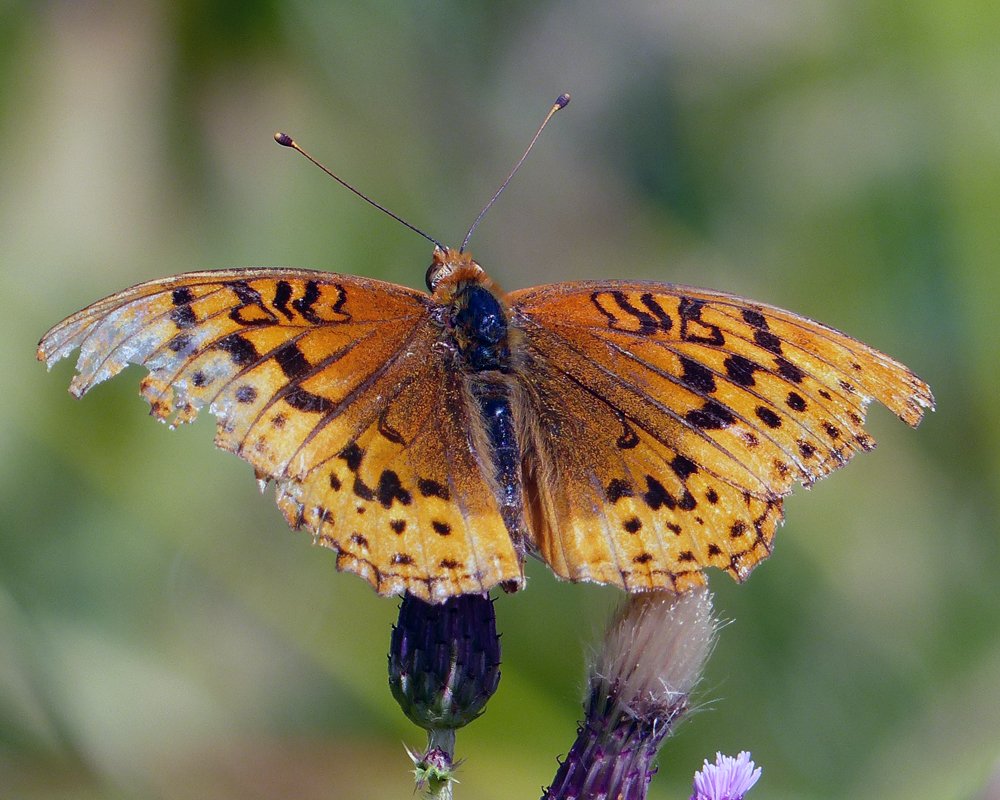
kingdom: Animalia
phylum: Arthropoda
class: Insecta
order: Lepidoptera
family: Nymphalidae
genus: Speyeria
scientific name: Speyeria cybele
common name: Great Spangled Fritillary
